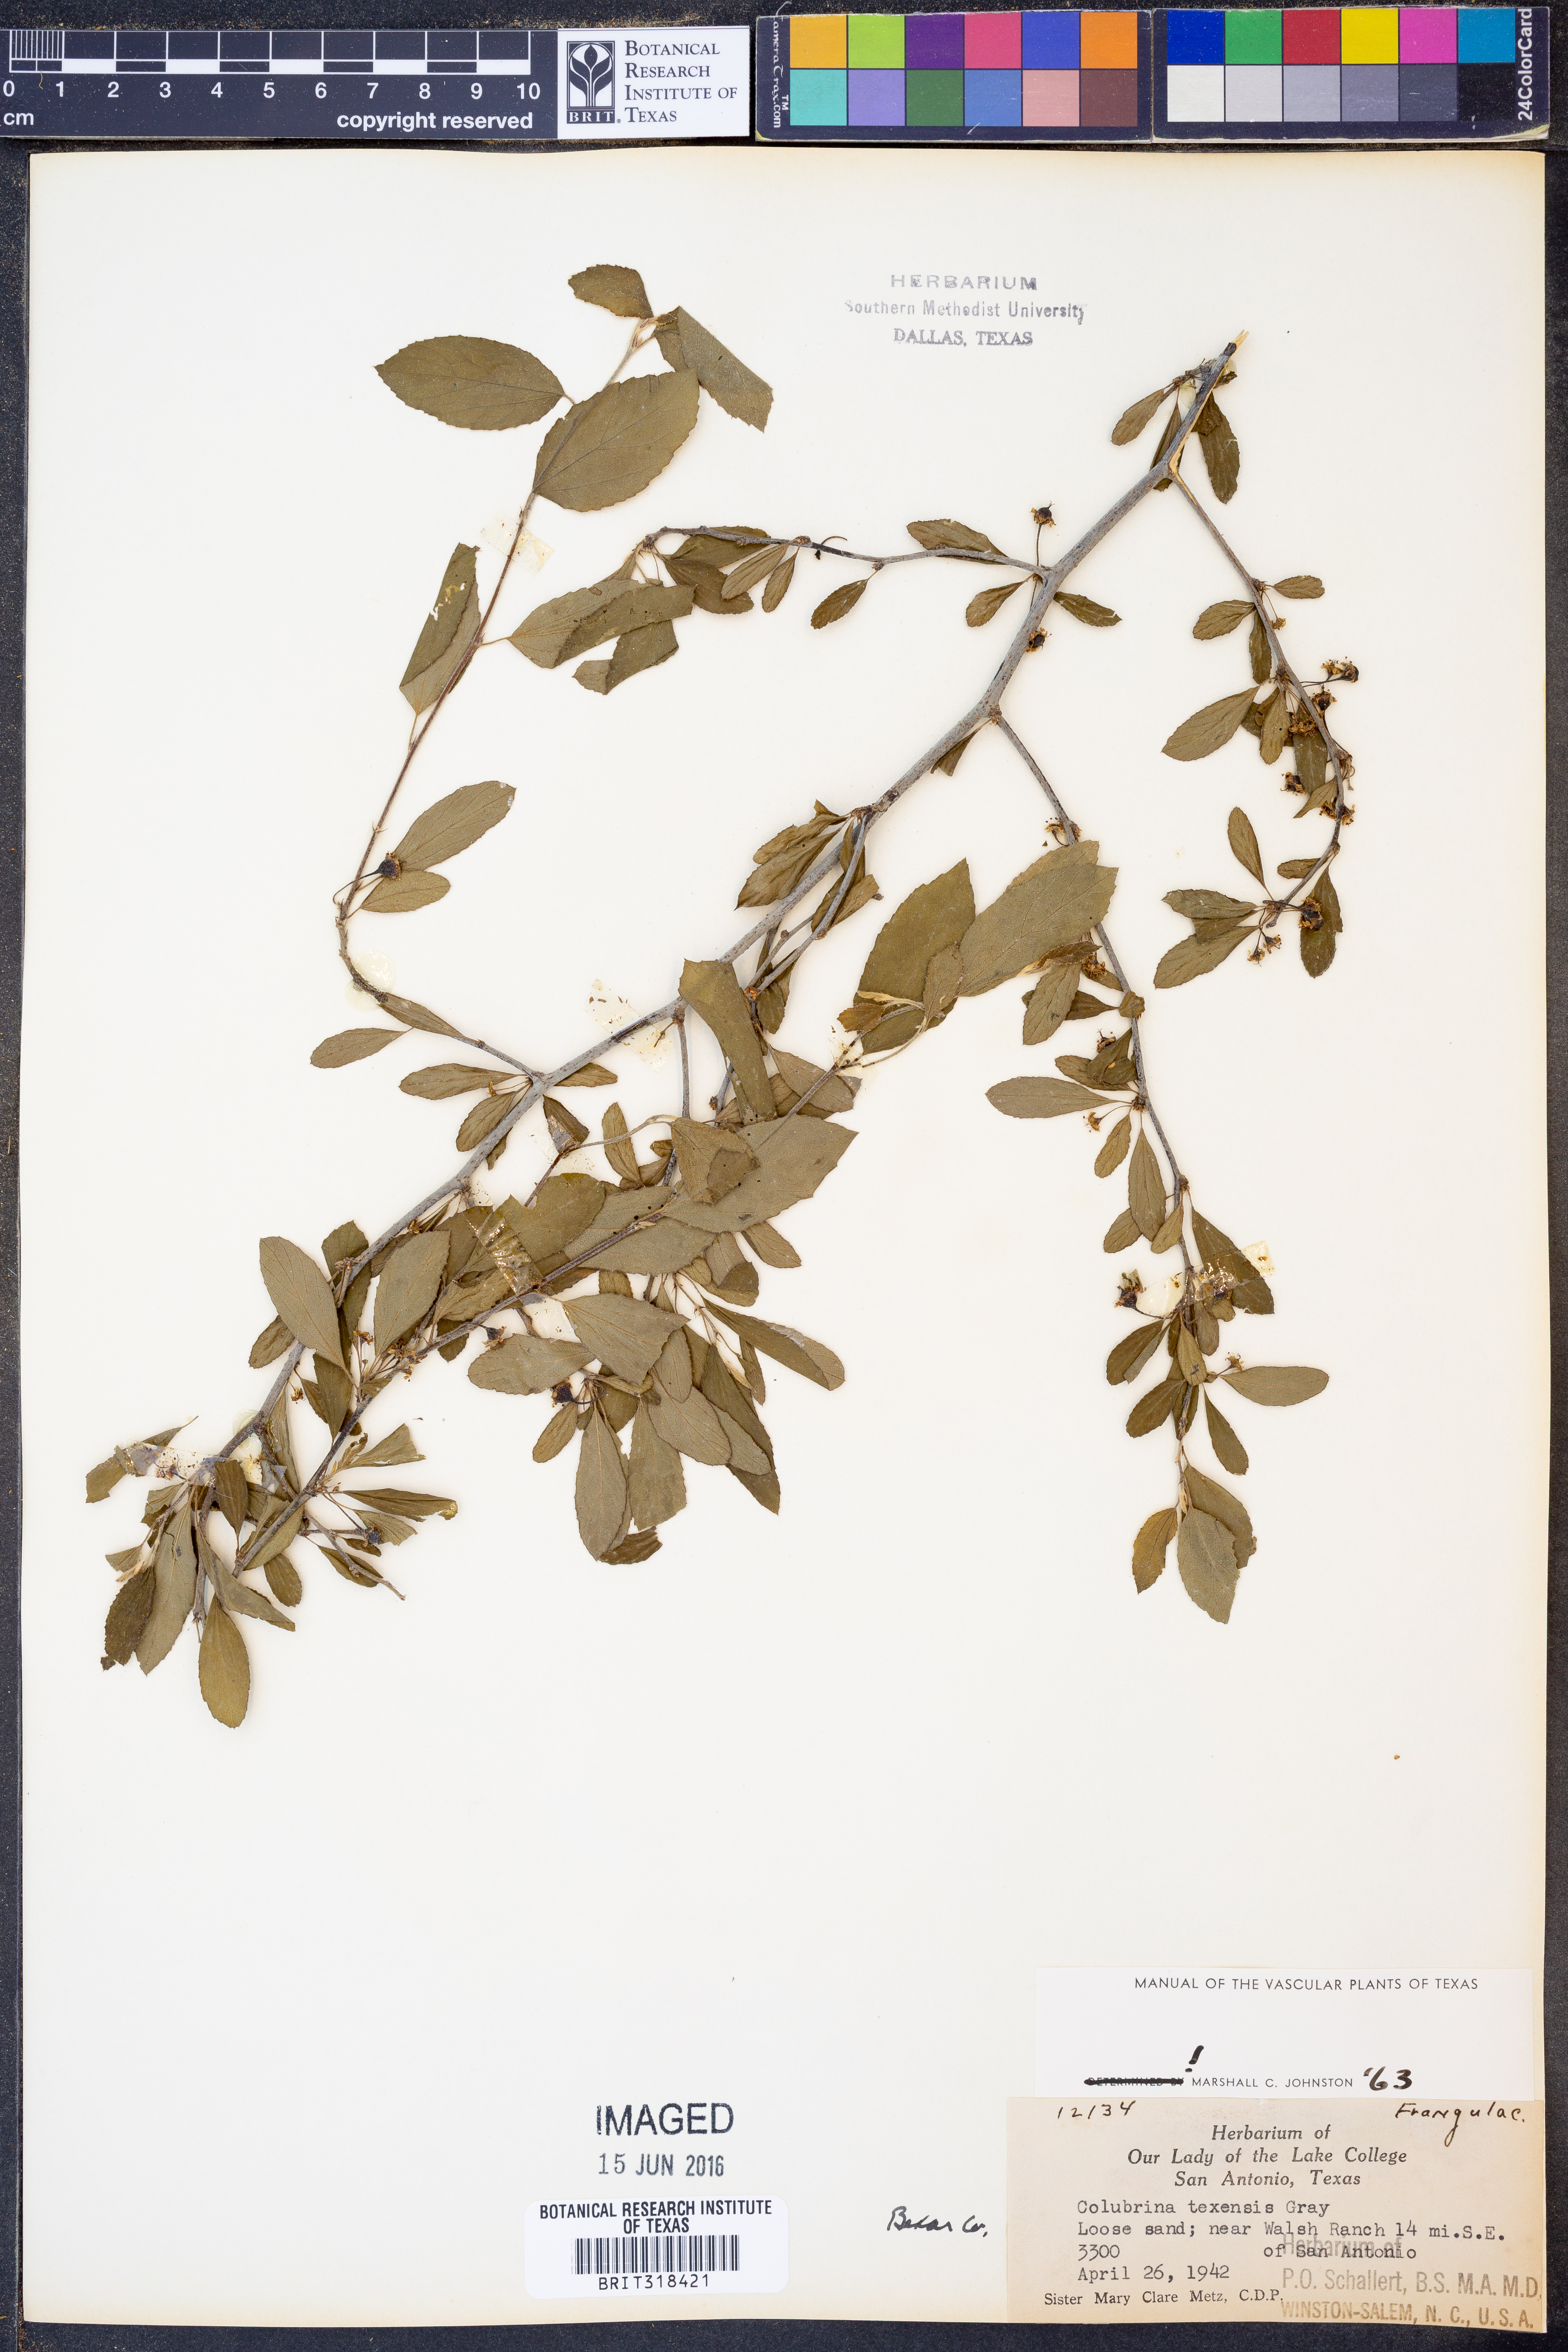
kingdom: Plantae
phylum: Tracheophyta
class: Magnoliopsida
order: Rosales
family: Rhamnaceae
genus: Colubrina
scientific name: Colubrina texensis
